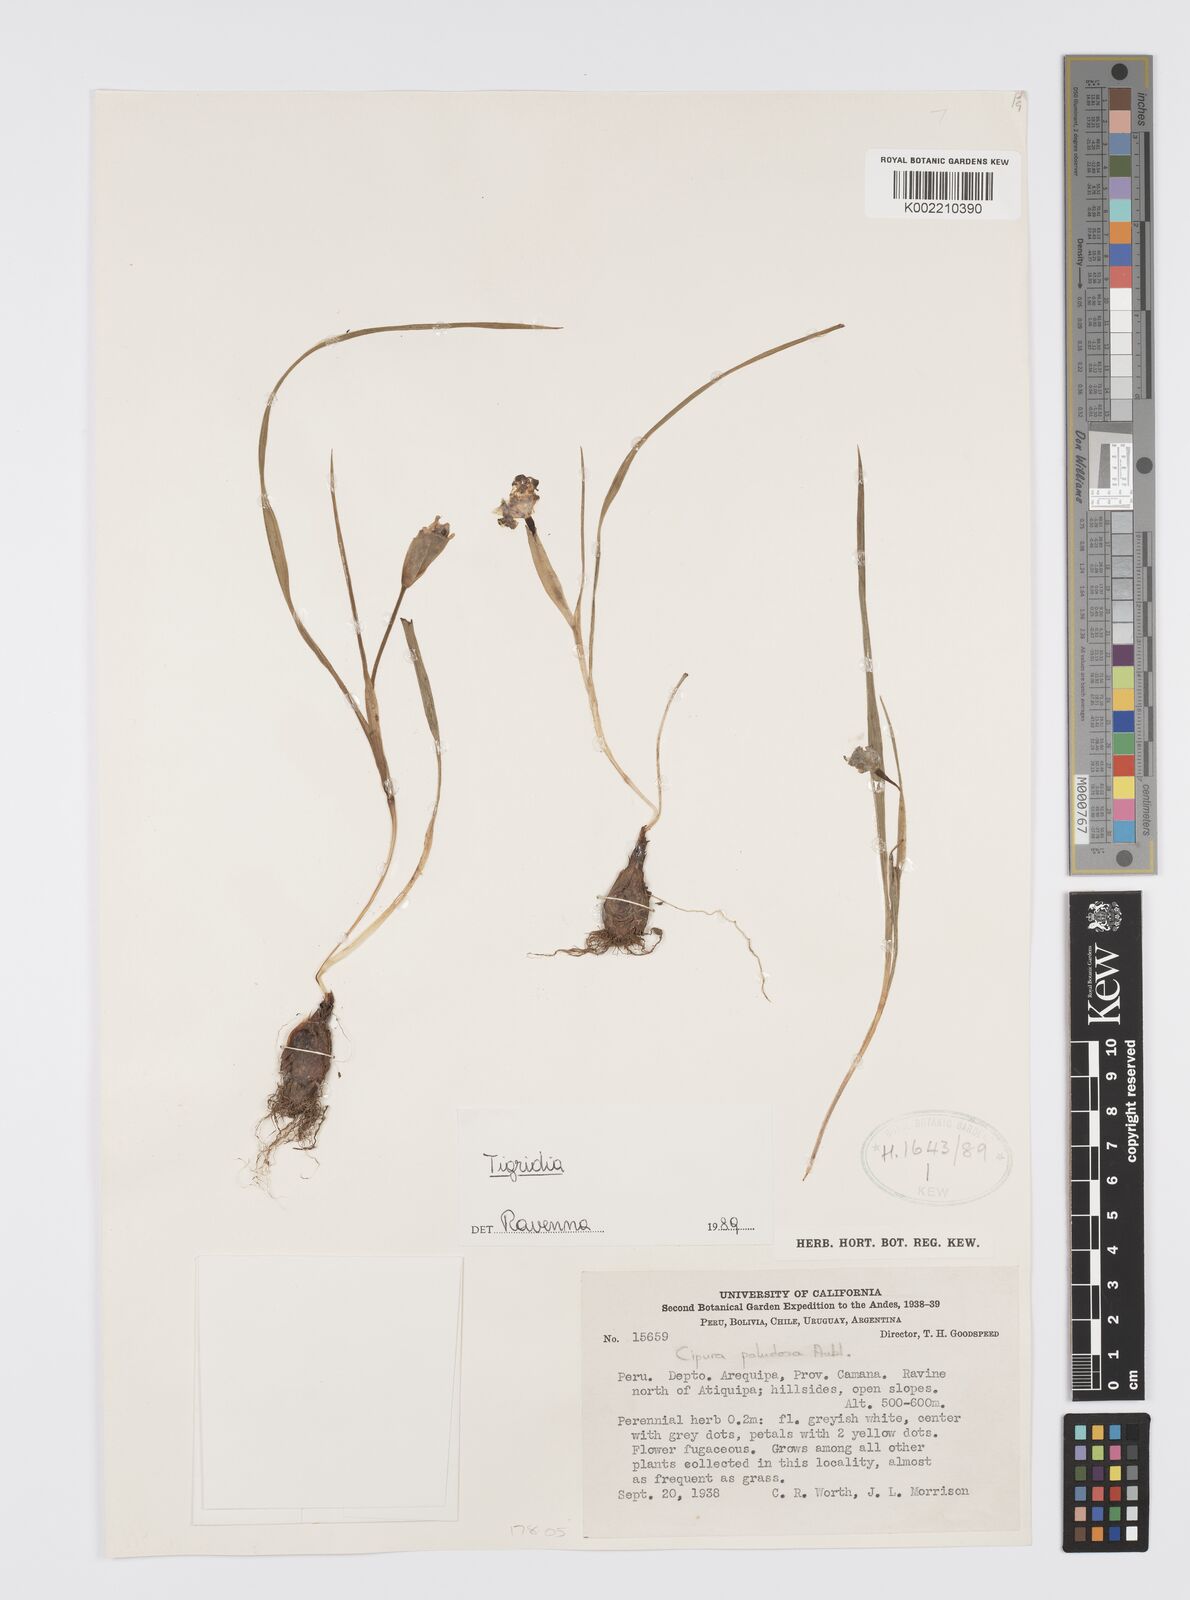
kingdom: Plantae
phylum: Tracheophyta
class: Liliopsida
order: Asparagales
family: Iridaceae
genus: Tigridia
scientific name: Tigridia
